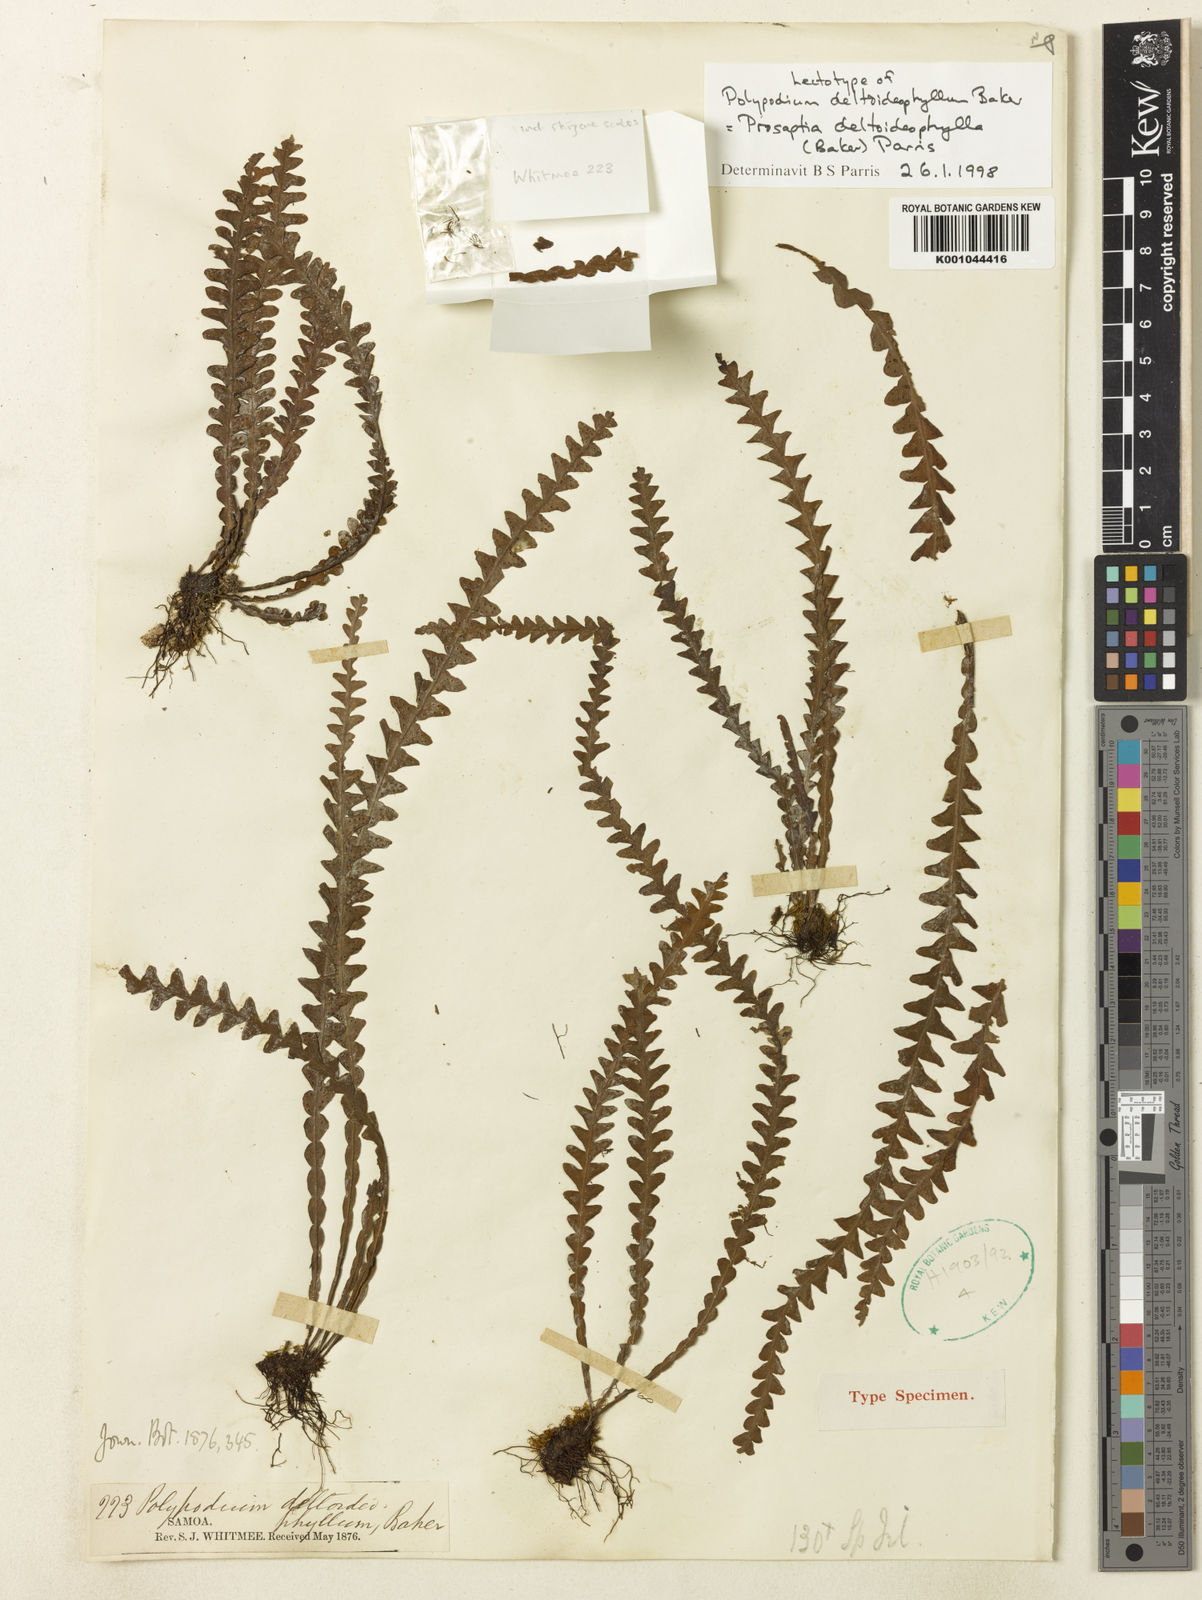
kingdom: Plantae
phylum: Tracheophyta
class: Polypodiopsida
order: Polypodiales
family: Polypodiaceae
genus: Prosaptia
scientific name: Prosaptia deltoideophylla
